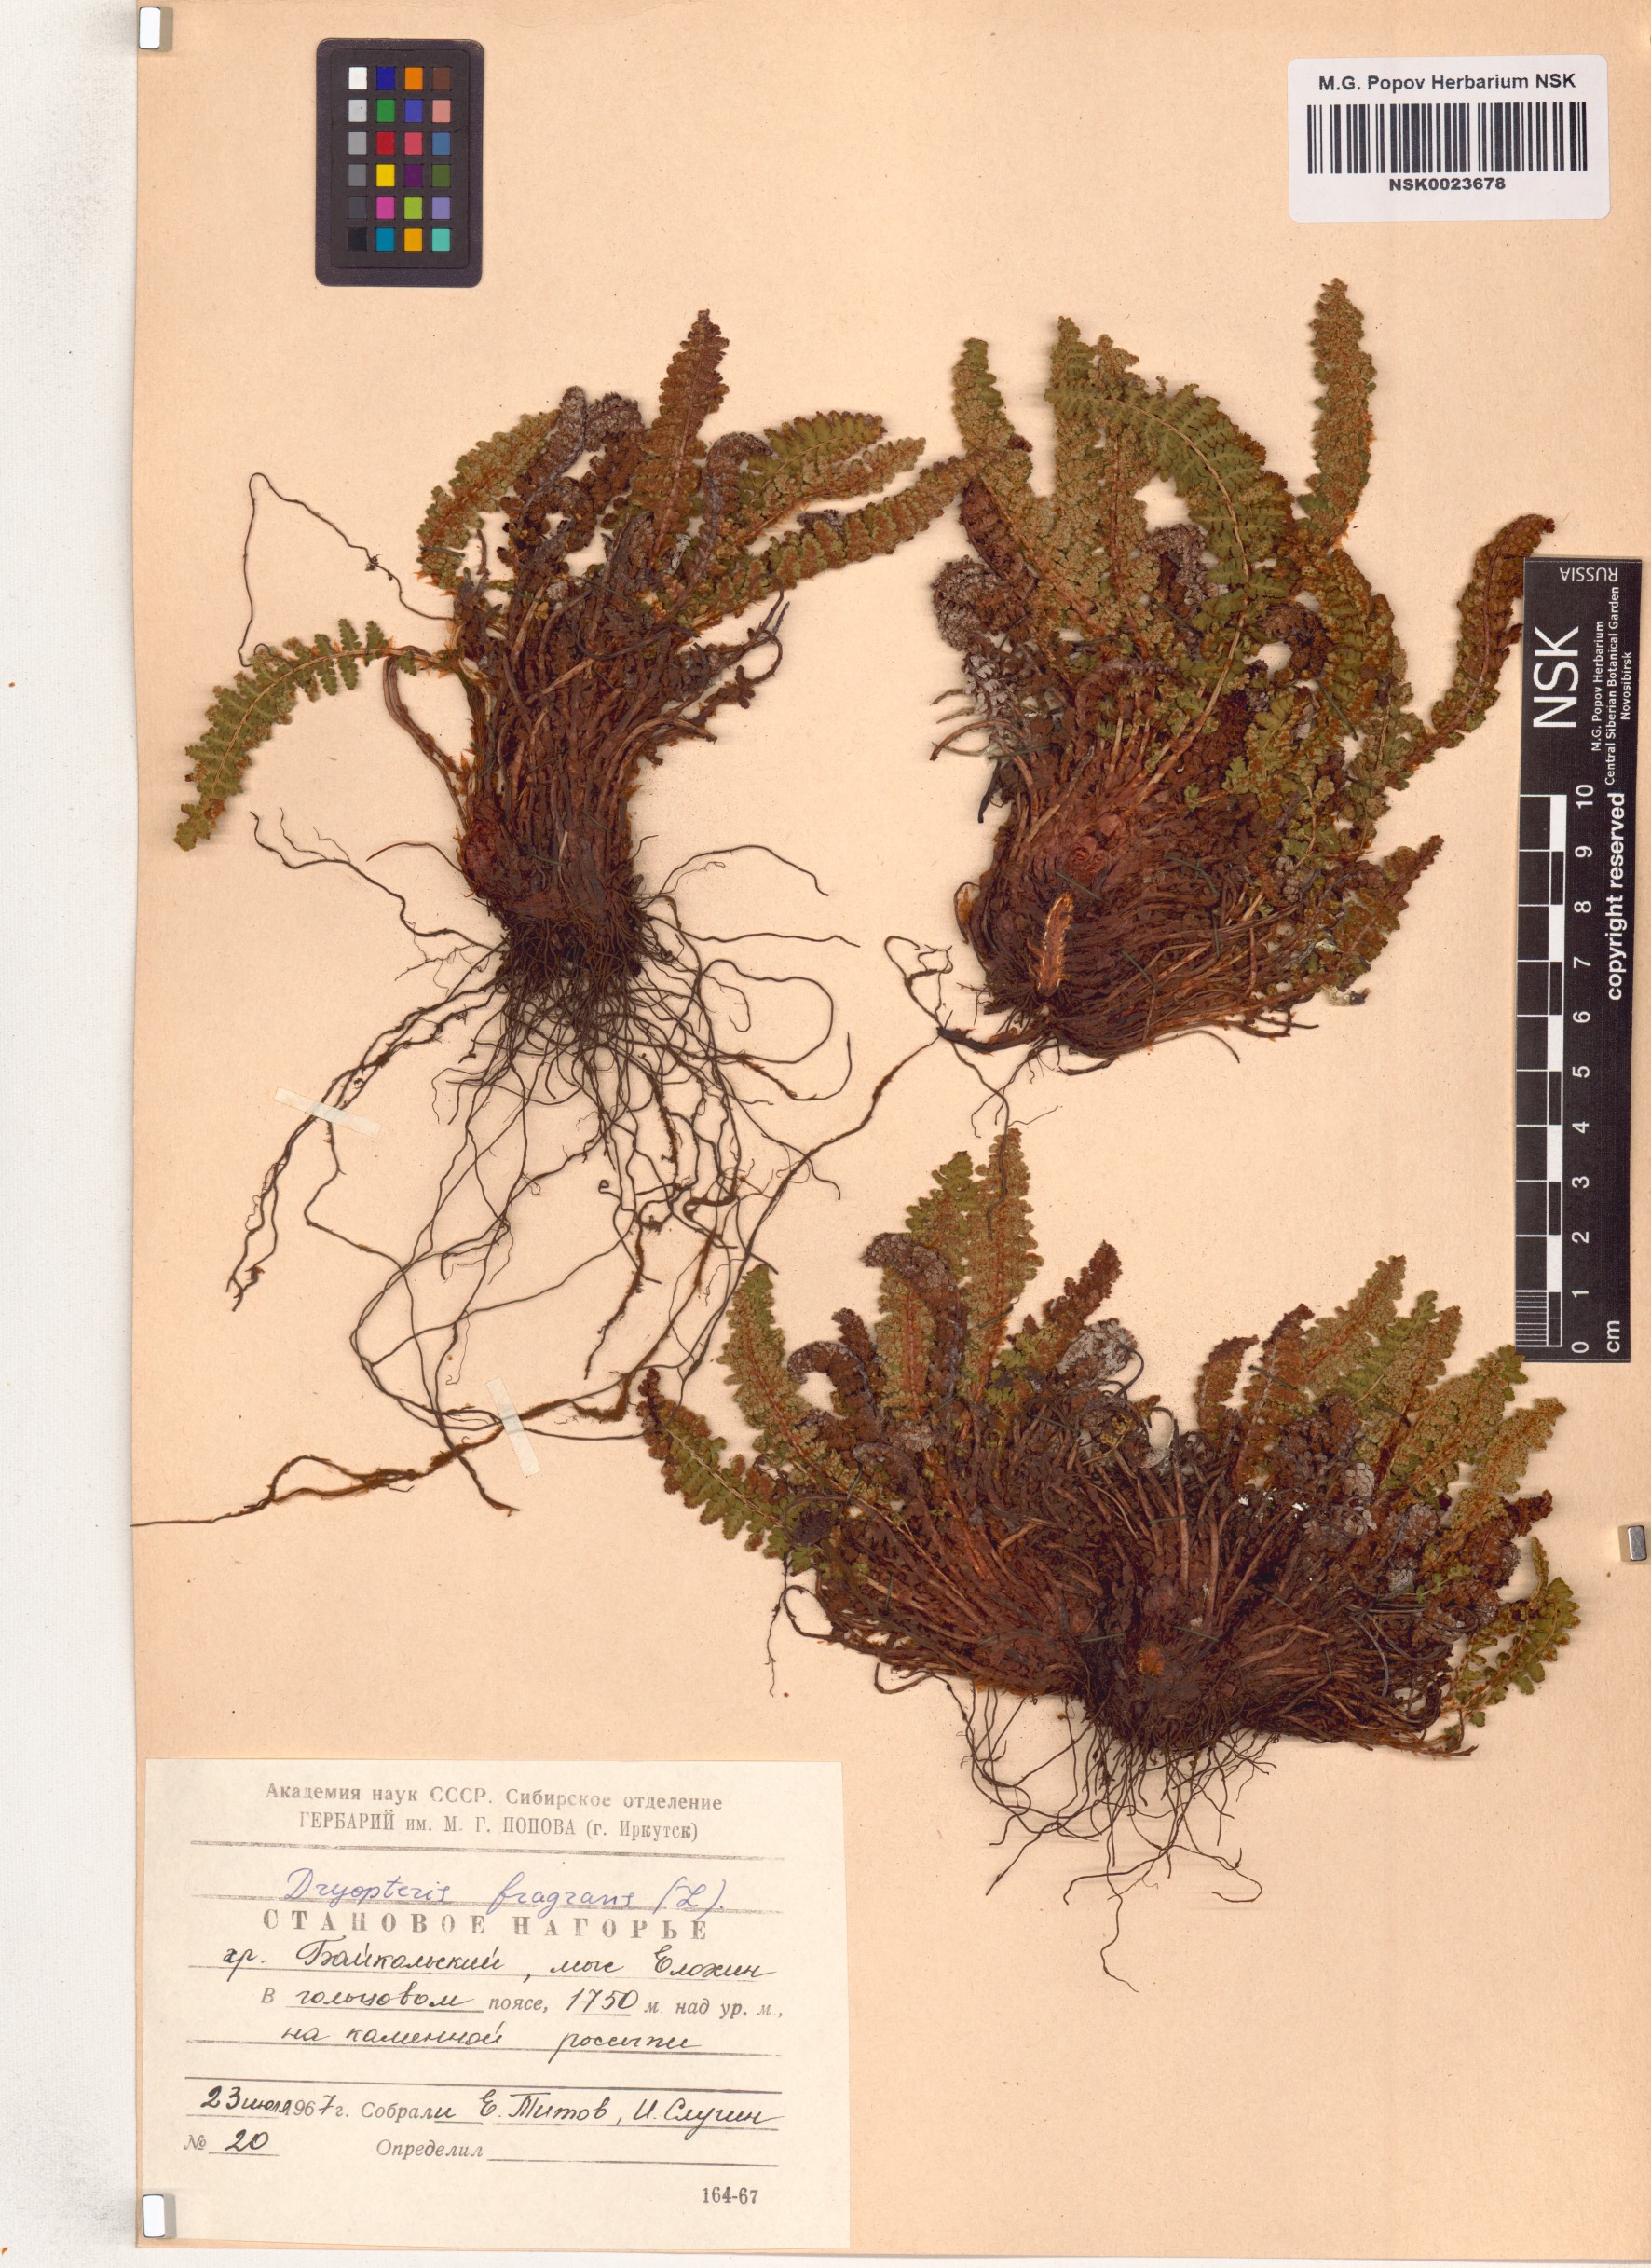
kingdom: Plantae
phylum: Tracheophyta
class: Polypodiopsida
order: Polypodiales
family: Dryopteridaceae
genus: Dryopteris
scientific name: Dryopteris fragrans
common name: Fragrant wood fern
